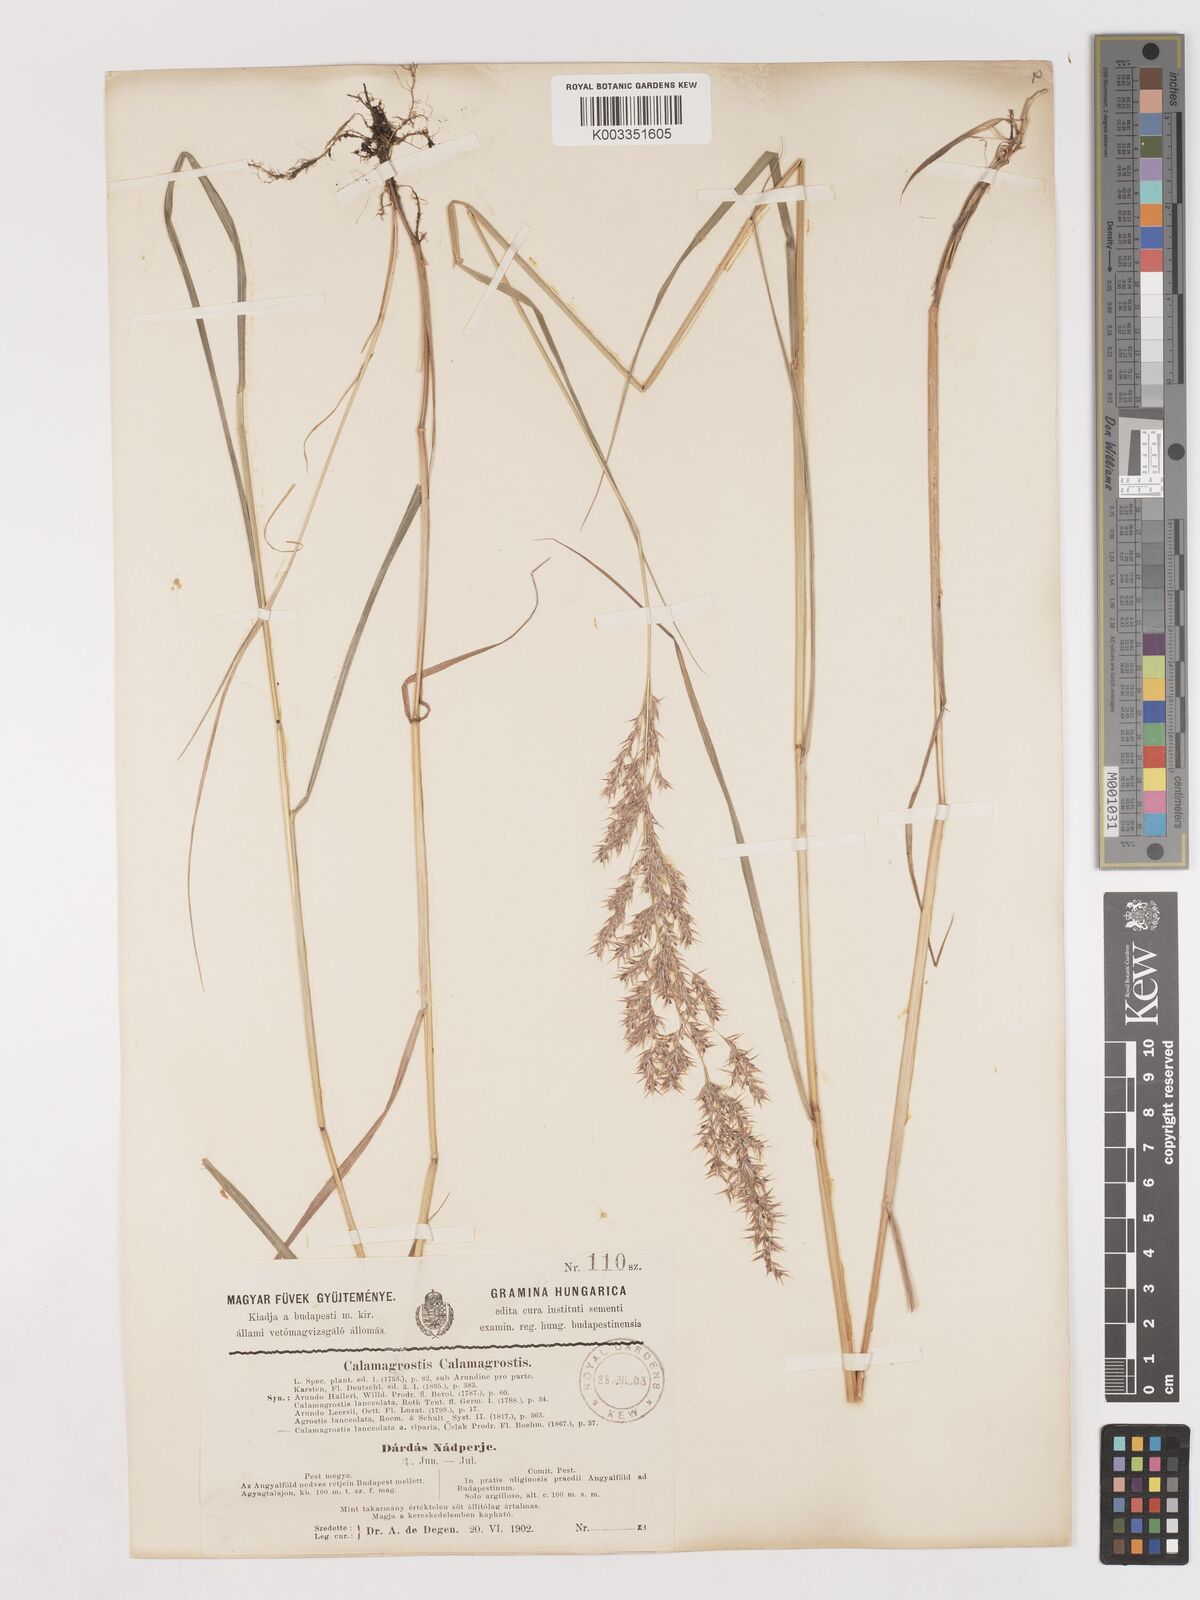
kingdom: Plantae
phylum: Tracheophyta
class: Liliopsida
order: Poales
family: Poaceae
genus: Calamagrostis
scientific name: Calamagrostis canescens
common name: Purple small-reed
